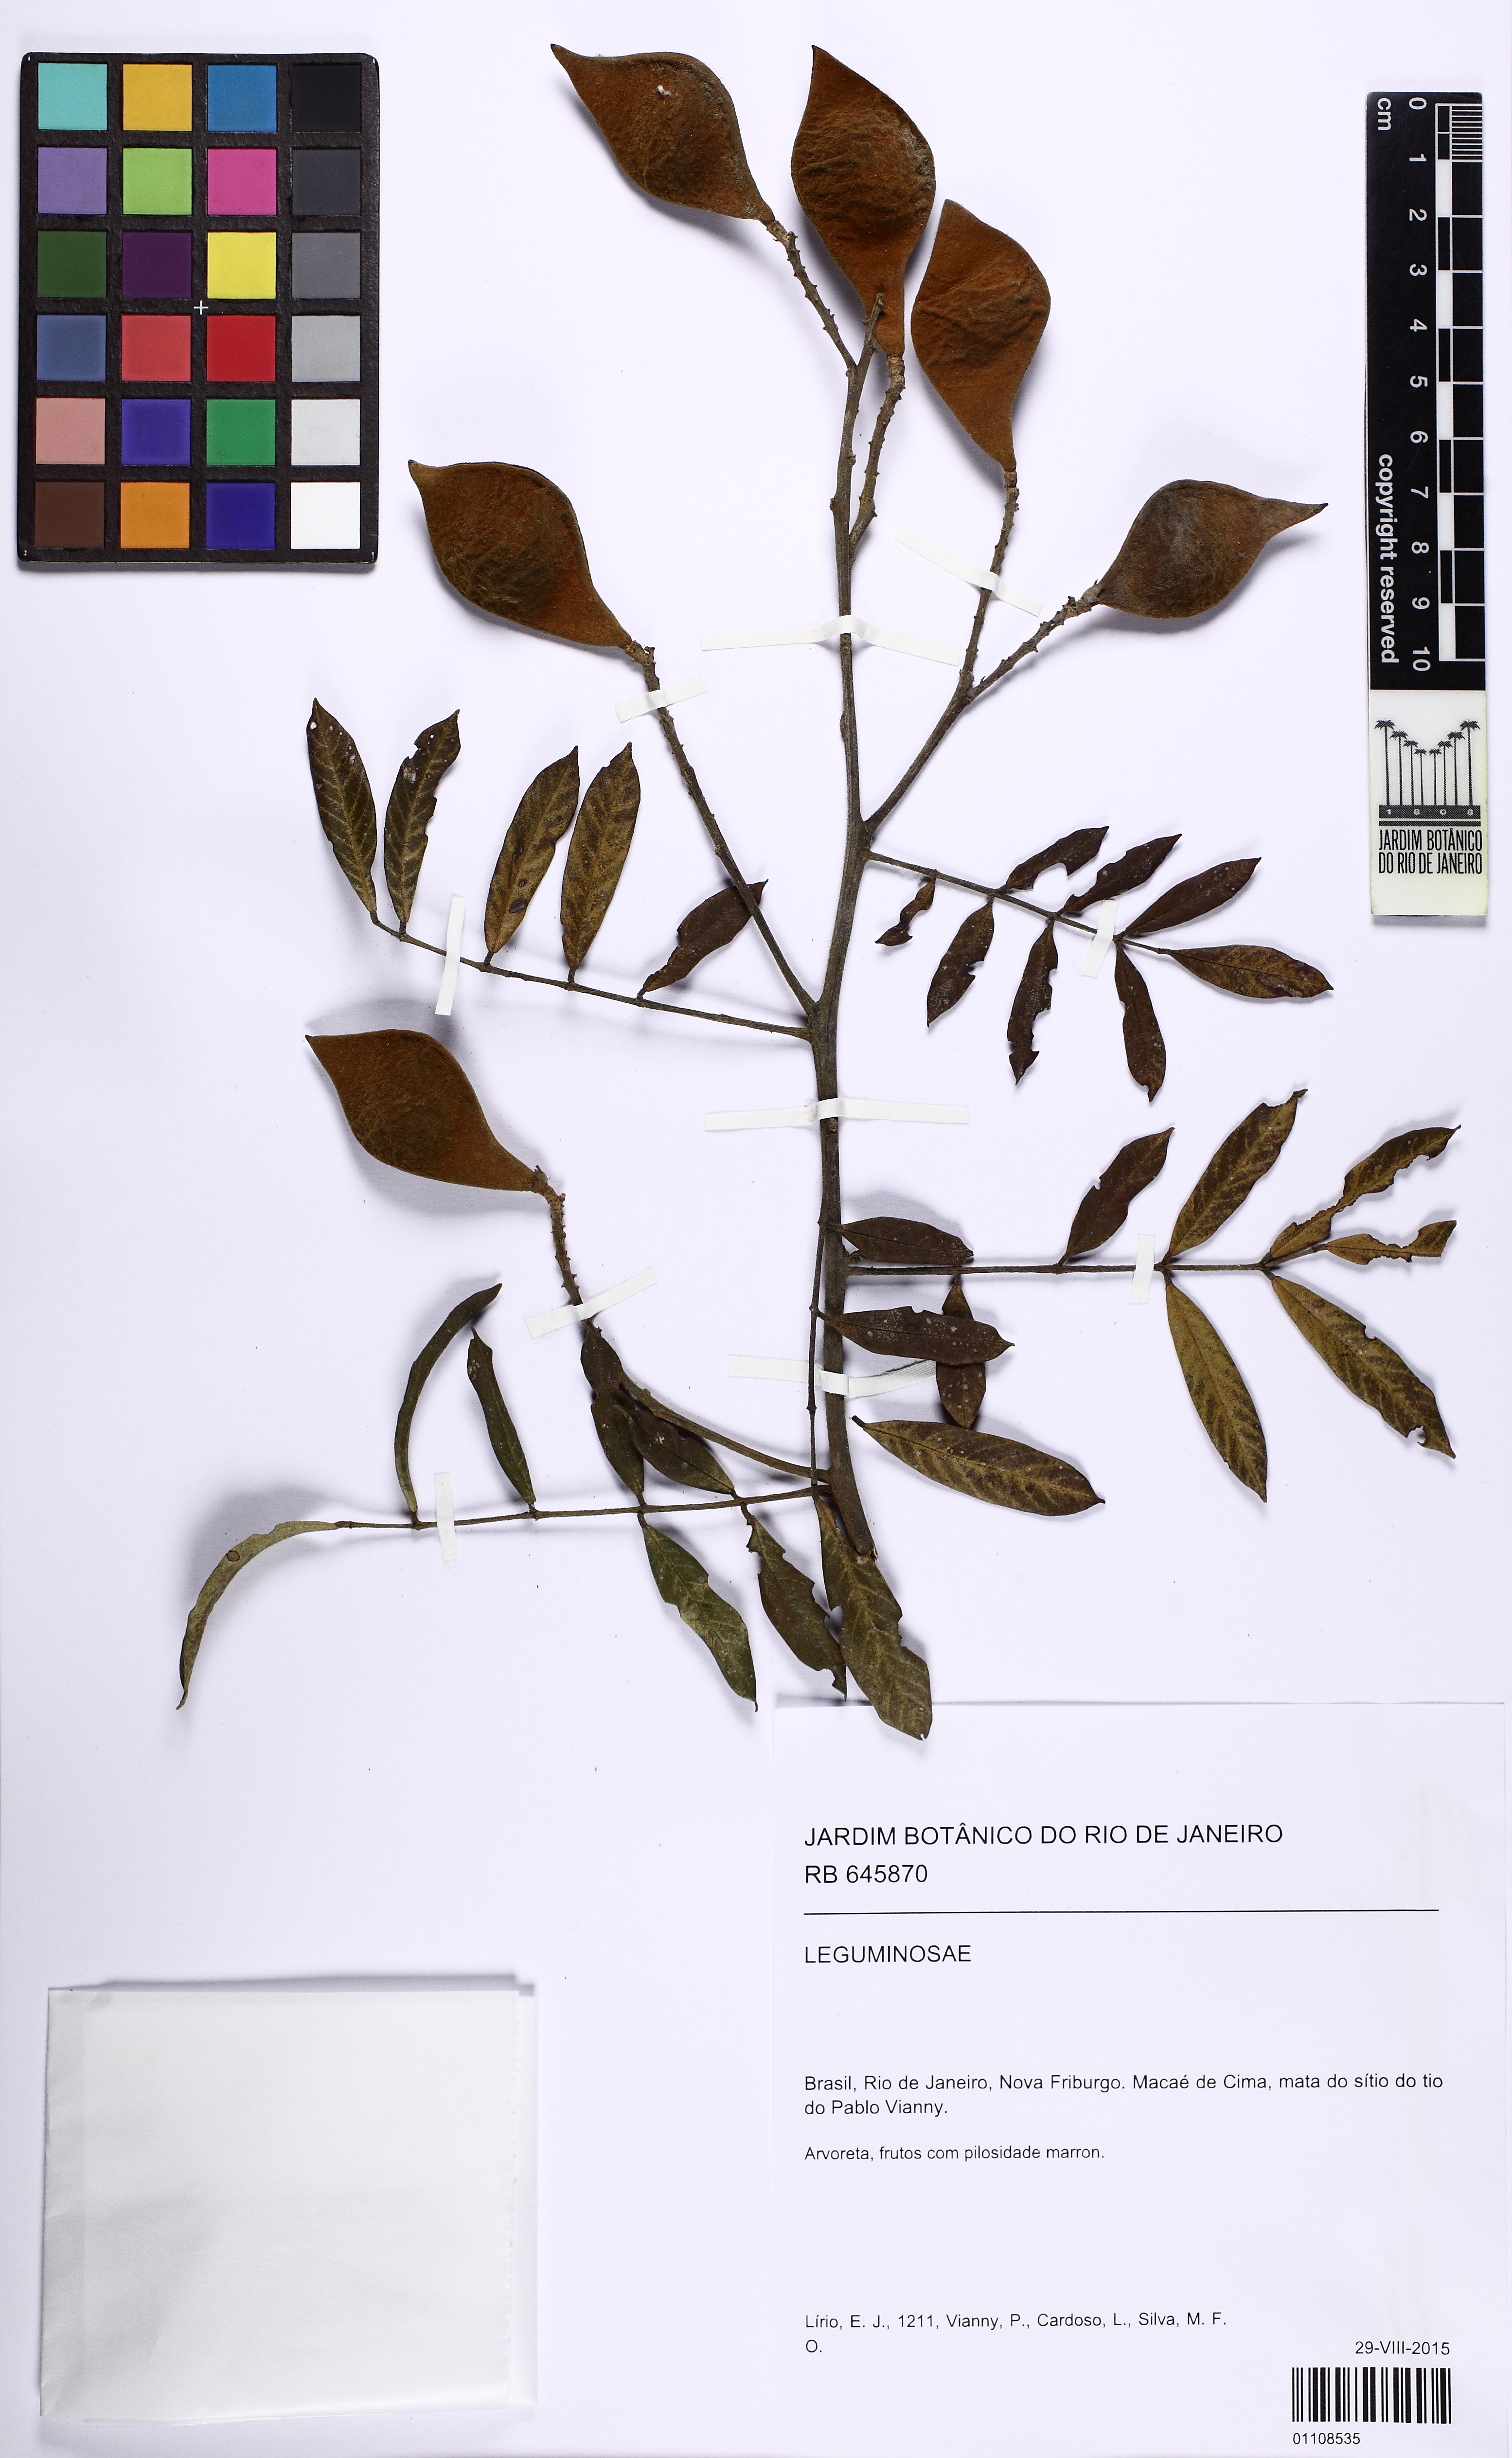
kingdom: Plantae
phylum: Tracheophyta
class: Magnoliopsida
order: Fabales
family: Fabaceae
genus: Ormosia
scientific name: Ormosia altimontana
